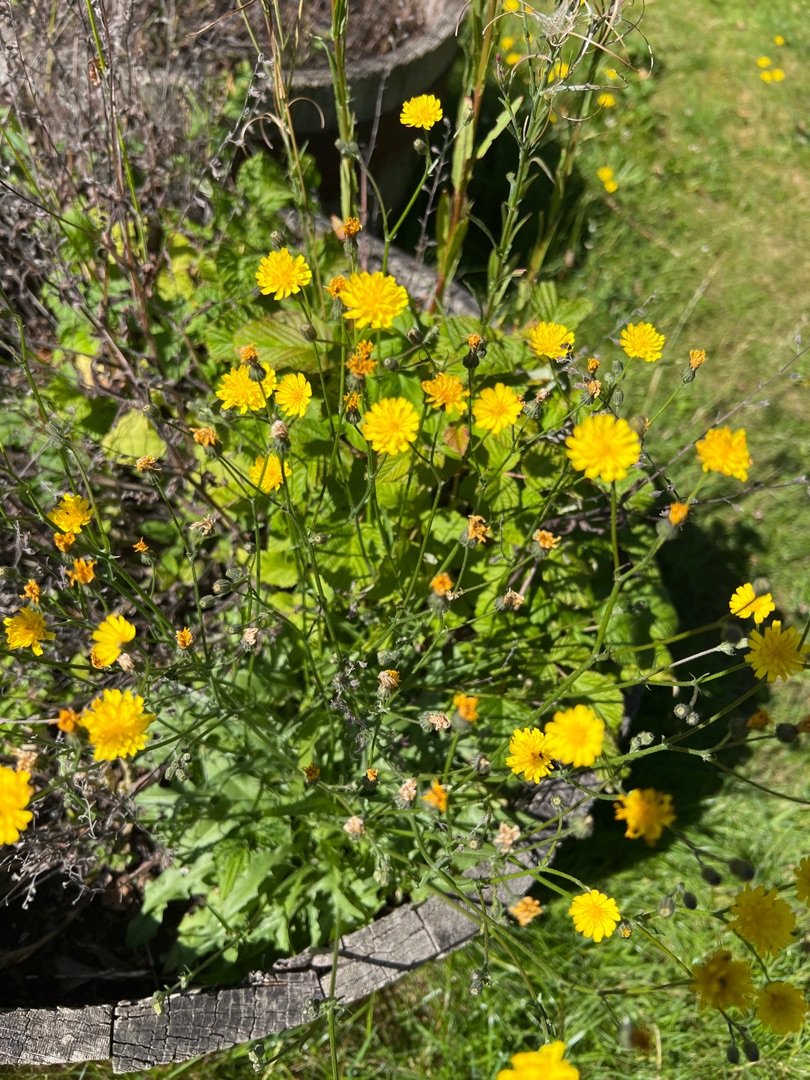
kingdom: Plantae
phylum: Tracheophyta
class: Magnoliopsida
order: Asterales
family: Asteraceae
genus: Crepis
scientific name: Crepis capillaris
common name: Grøn høgeskæg
